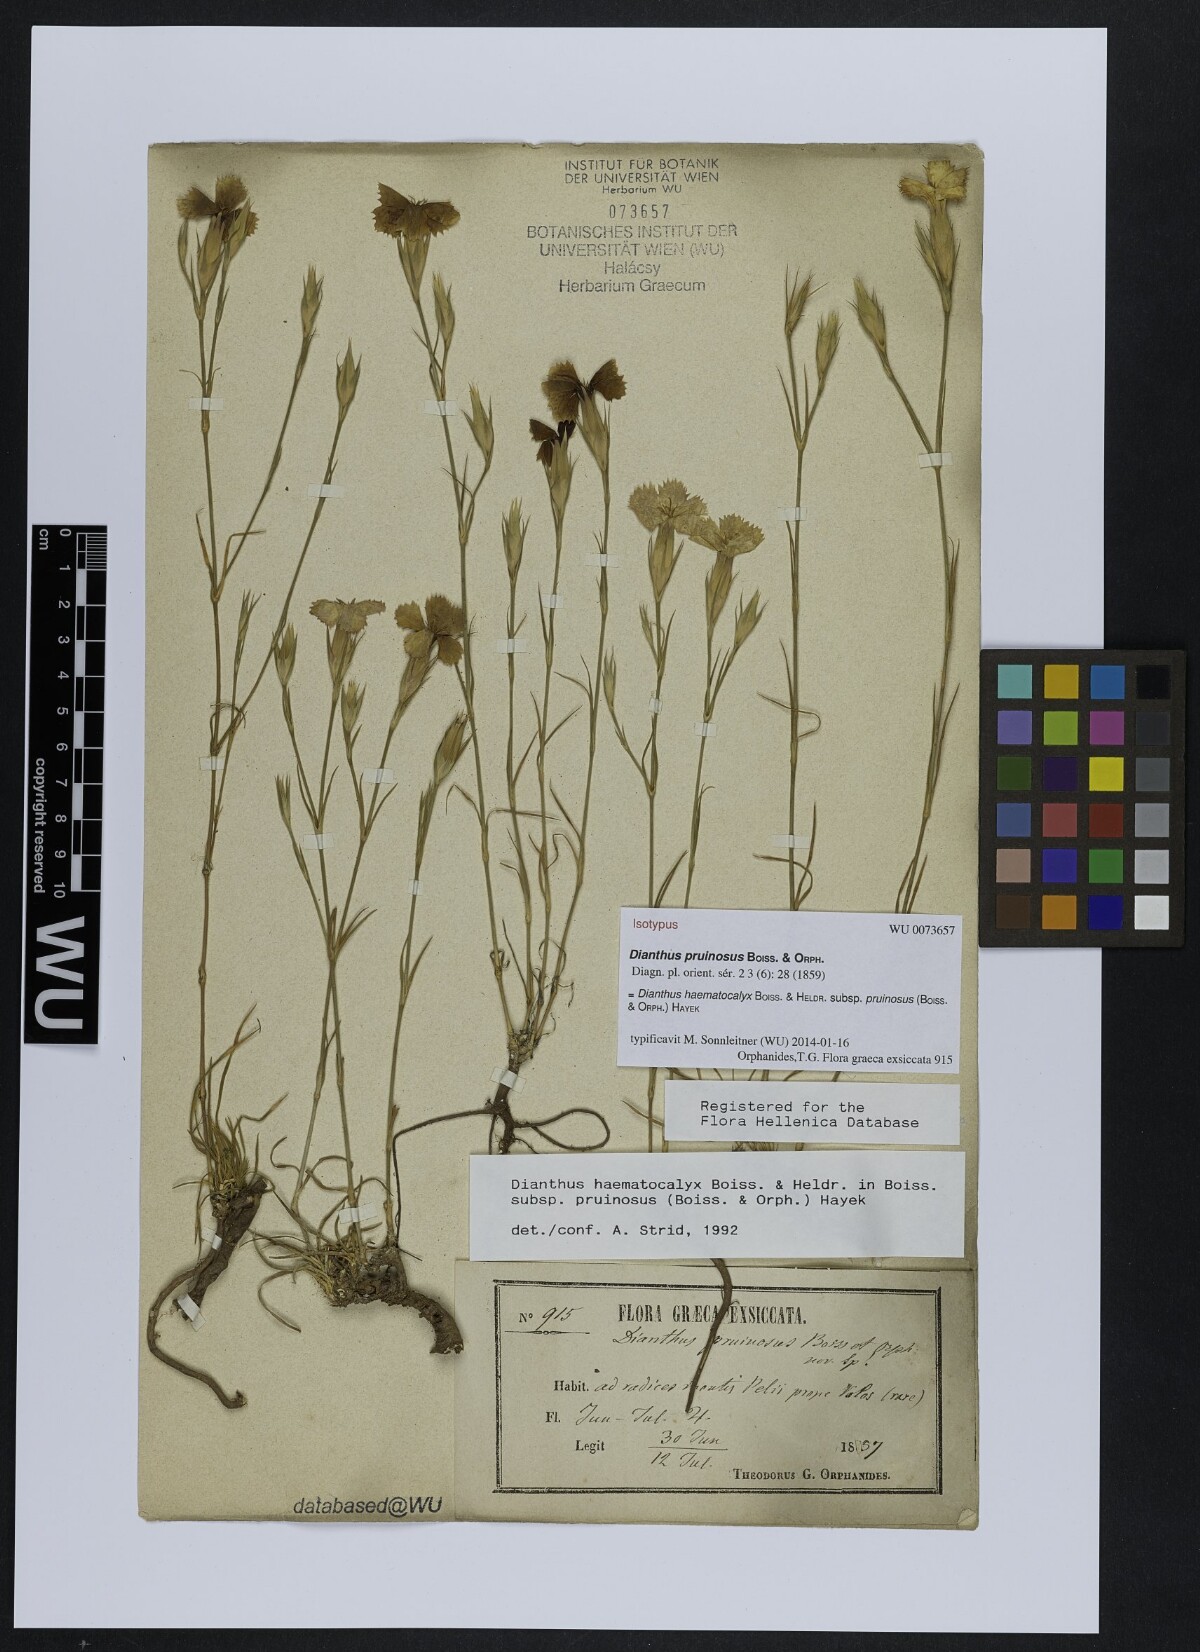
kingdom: Plantae
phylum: Tracheophyta
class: Magnoliopsida
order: Caryophyllales
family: Caryophyllaceae
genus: Dianthus
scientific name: Dianthus haematocalyx
